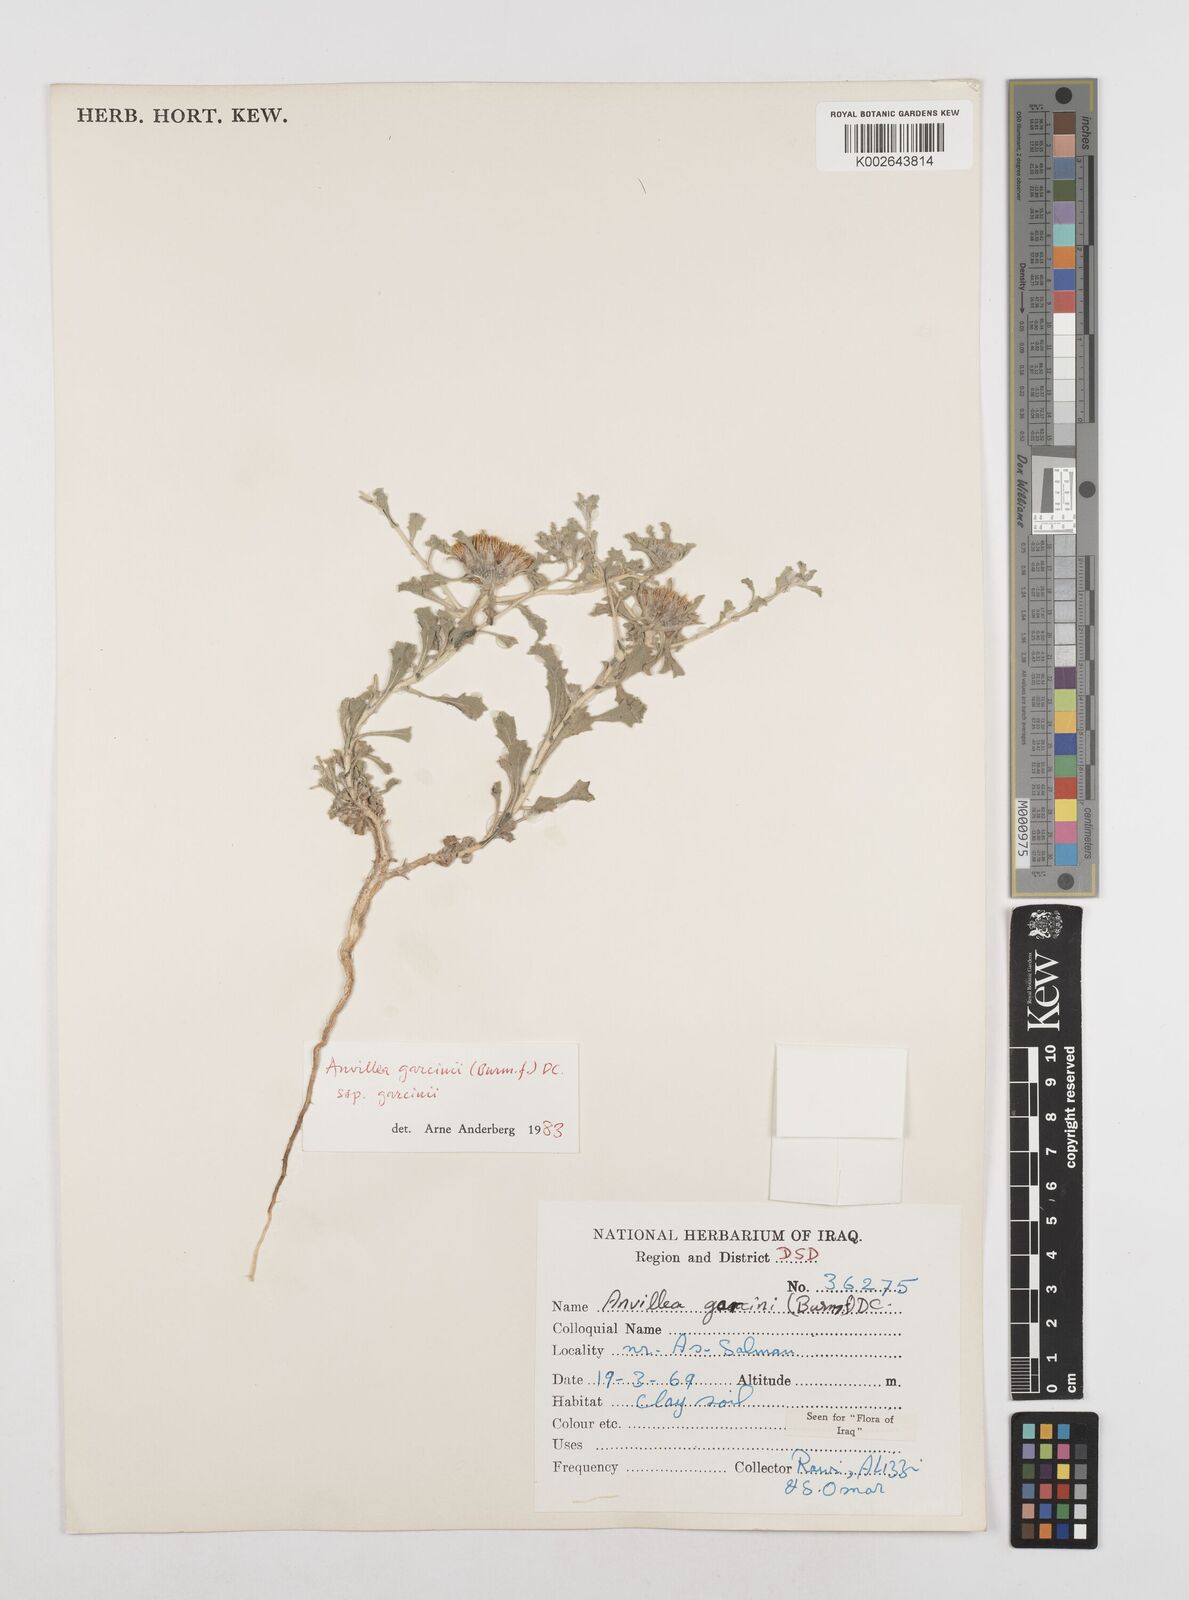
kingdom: Plantae
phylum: Tracheophyta
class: Magnoliopsida
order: Asterales
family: Asteraceae
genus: Anvillea
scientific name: Anvillea garcinii
